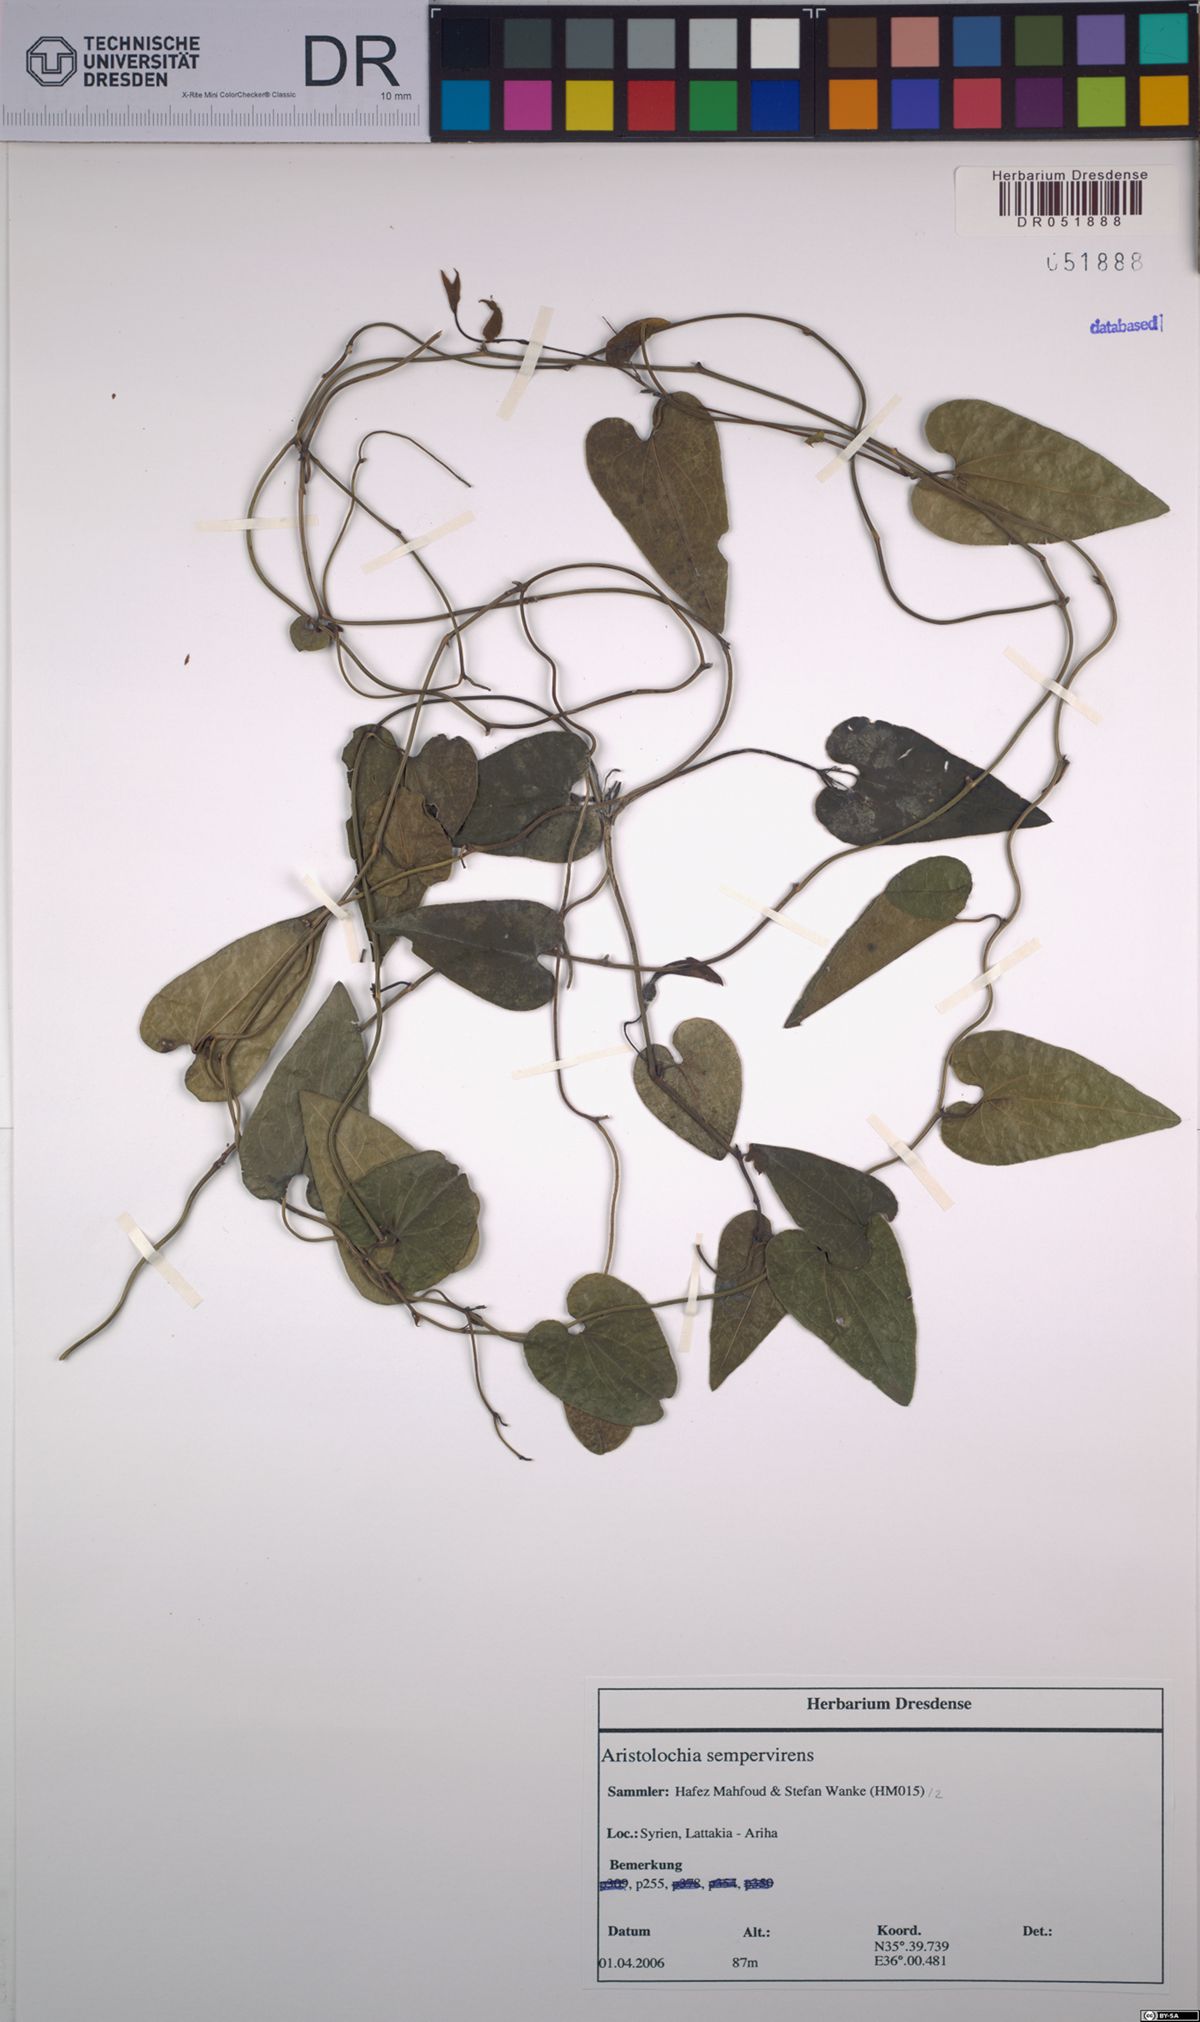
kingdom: Plantae
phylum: Tracheophyta
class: Magnoliopsida
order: Piperales
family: Aristolochiaceae
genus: Aristolochia
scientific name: Aristolochia sempervirens
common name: Long birthwort
